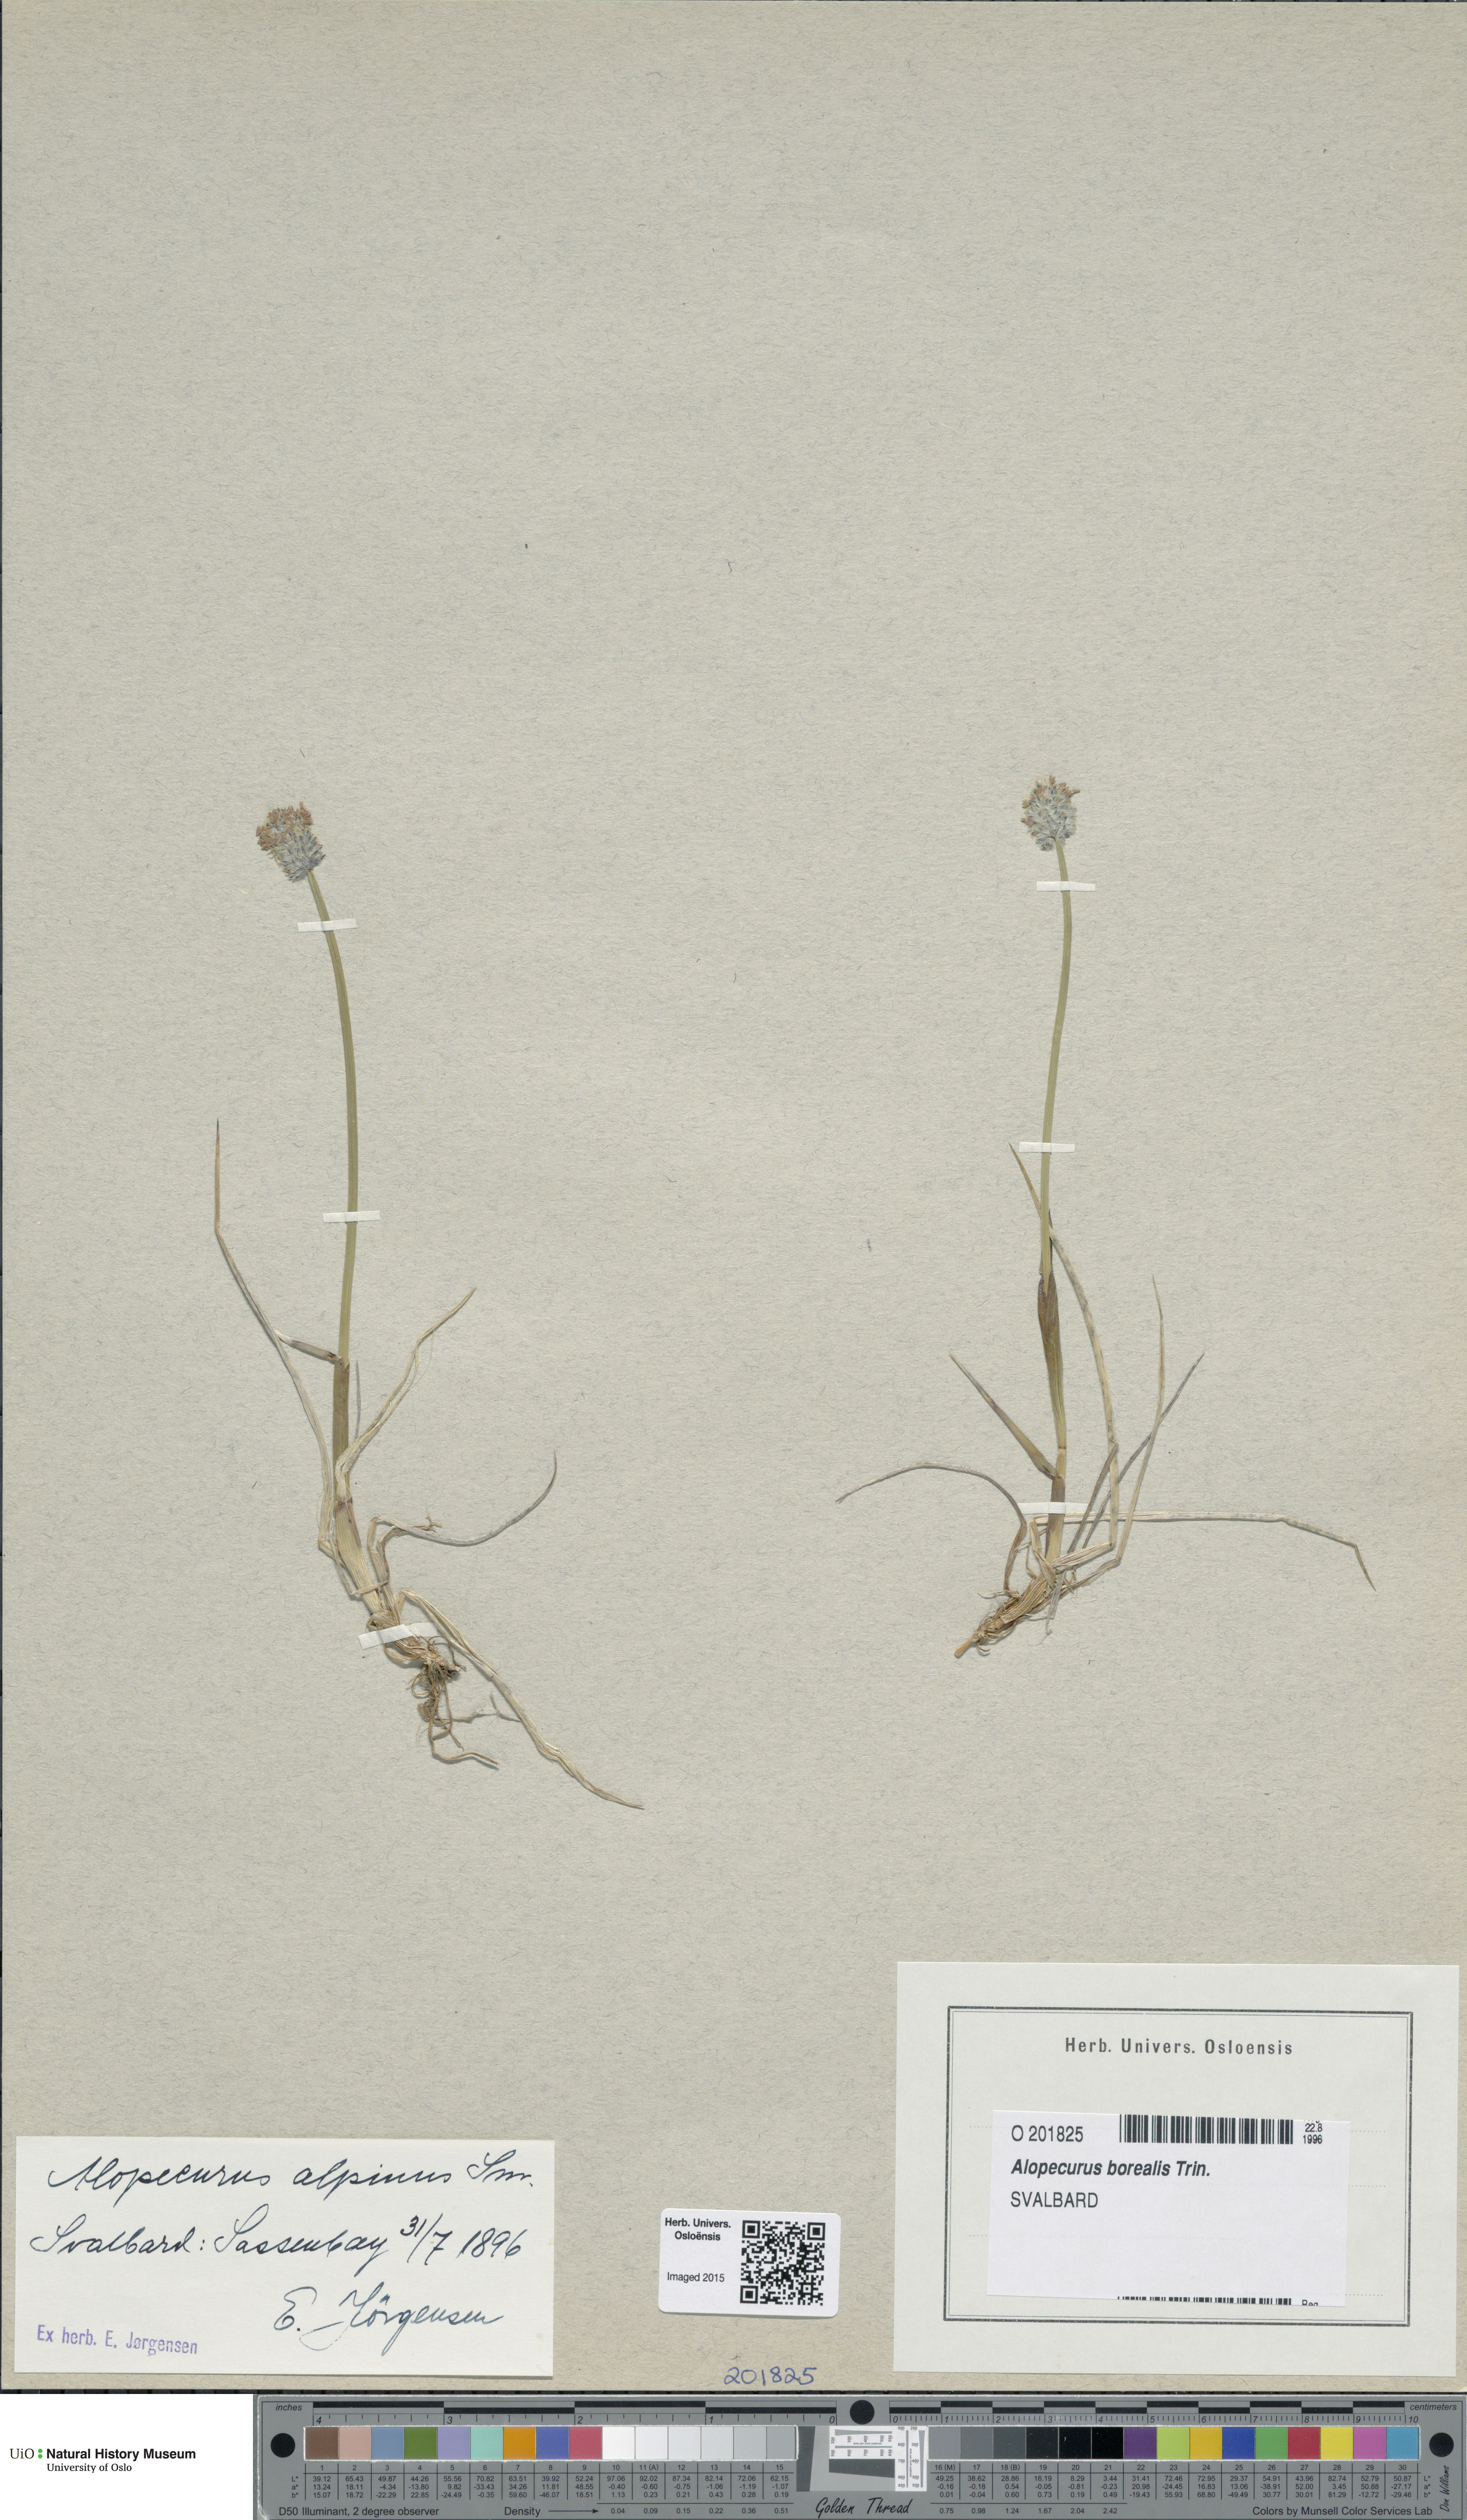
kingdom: Plantae
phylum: Tracheophyta
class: Liliopsida
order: Poales
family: Poaceae
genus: Alopecurus
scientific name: Alopecurus magellanicus
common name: Alpine foxtail
